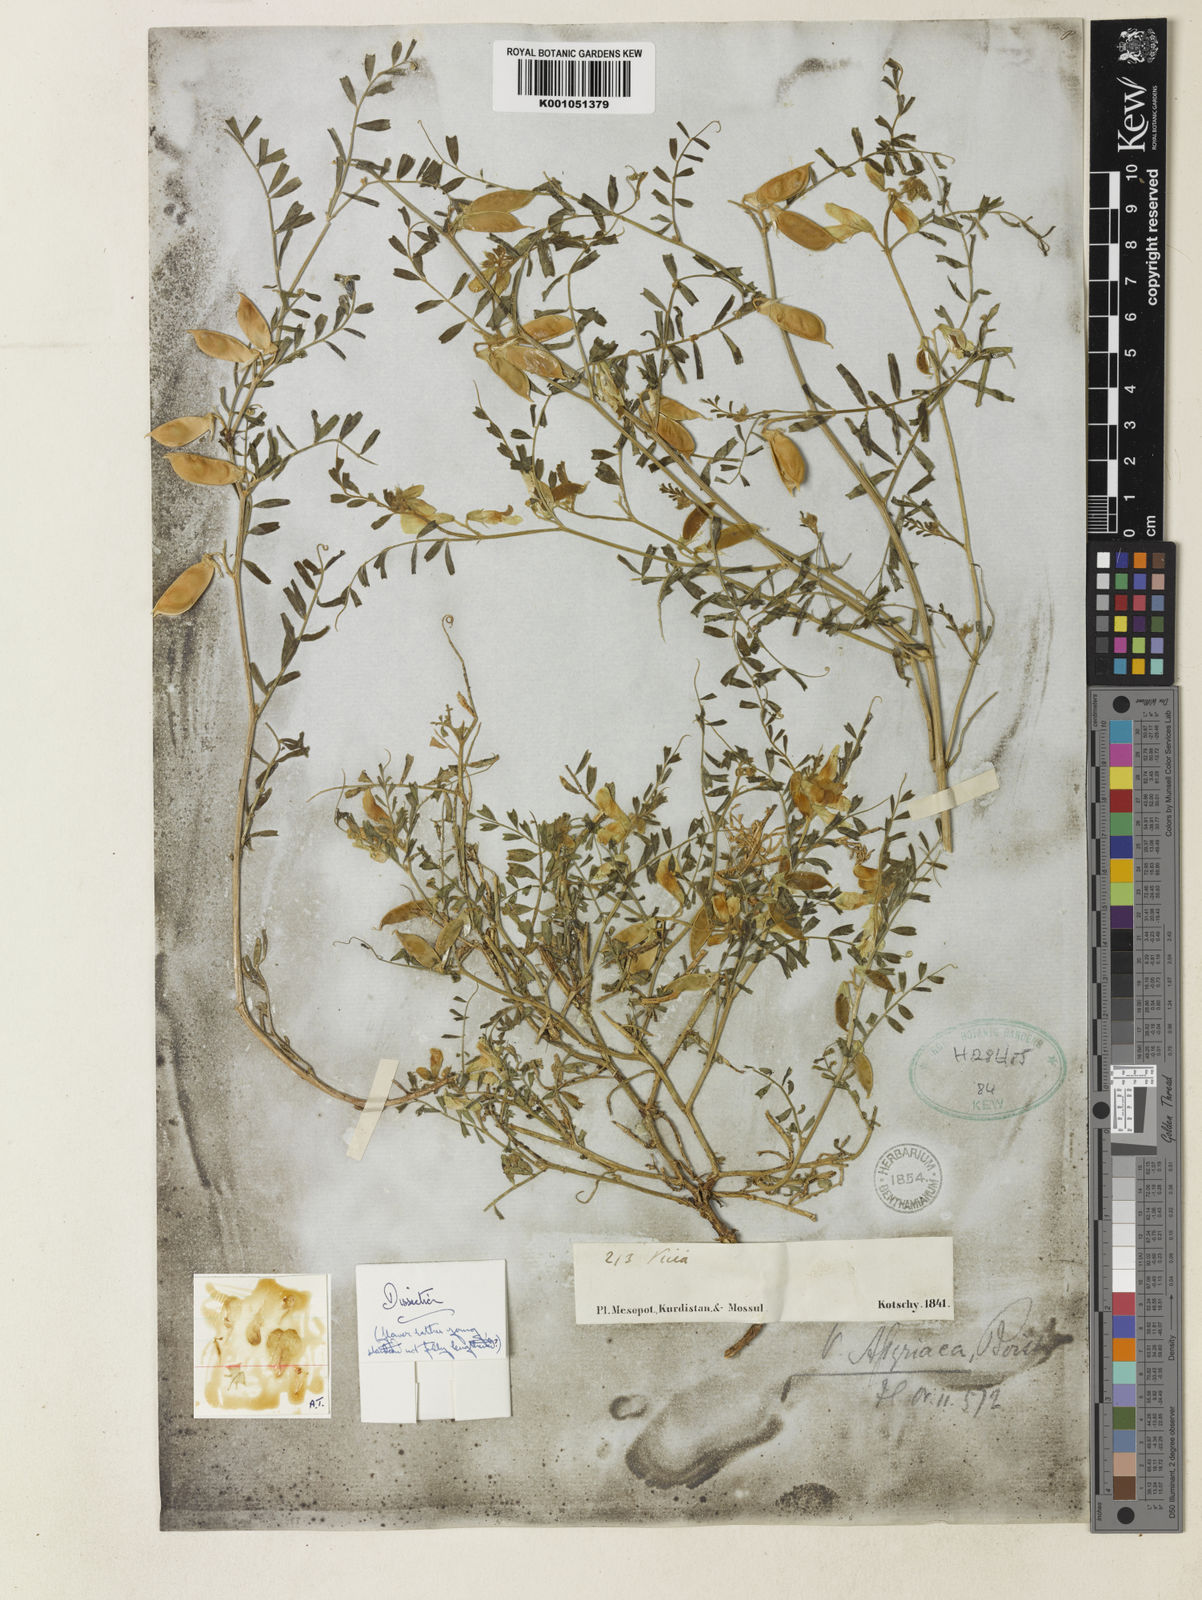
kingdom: Plantae
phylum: Tracheophyta
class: Magnoliopsida
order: Fabales
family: Fabaceae
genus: Vicia
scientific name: Vicia assyriaca
